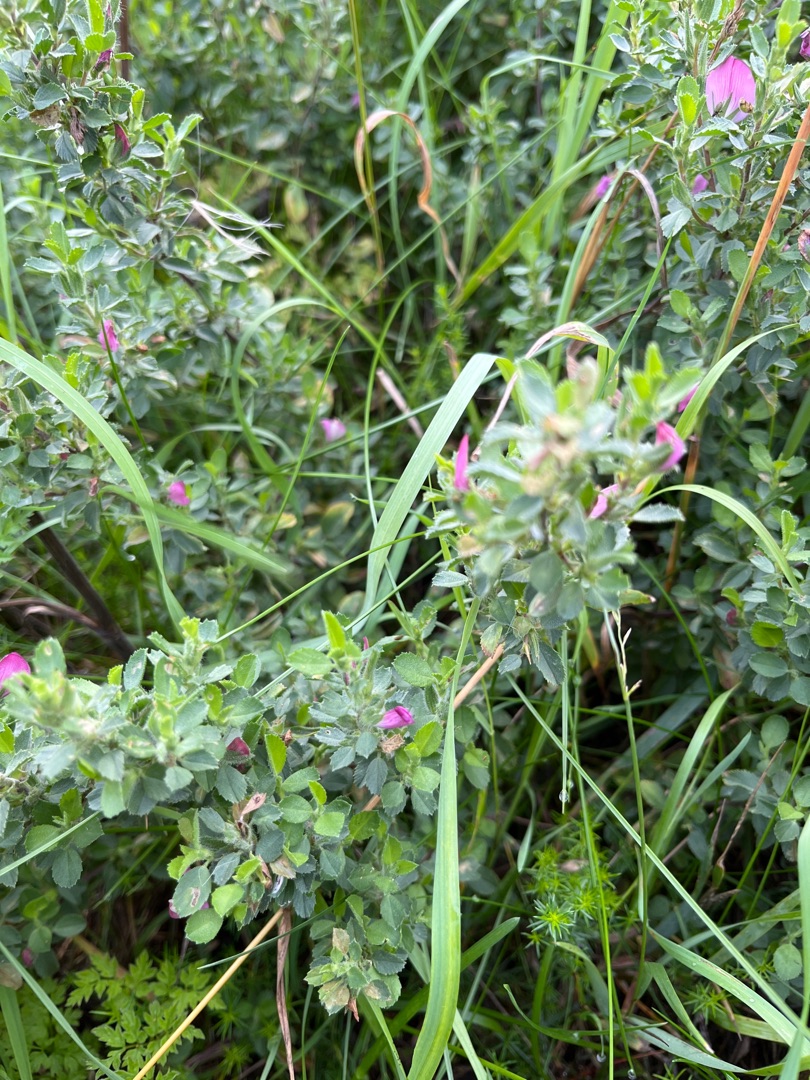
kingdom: Plantae
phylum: Tracheophyta
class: Magnoliopsida
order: Fabales
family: Fabaceae
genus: Ononis
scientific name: Ononis spinosa
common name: Mark-krageklo
